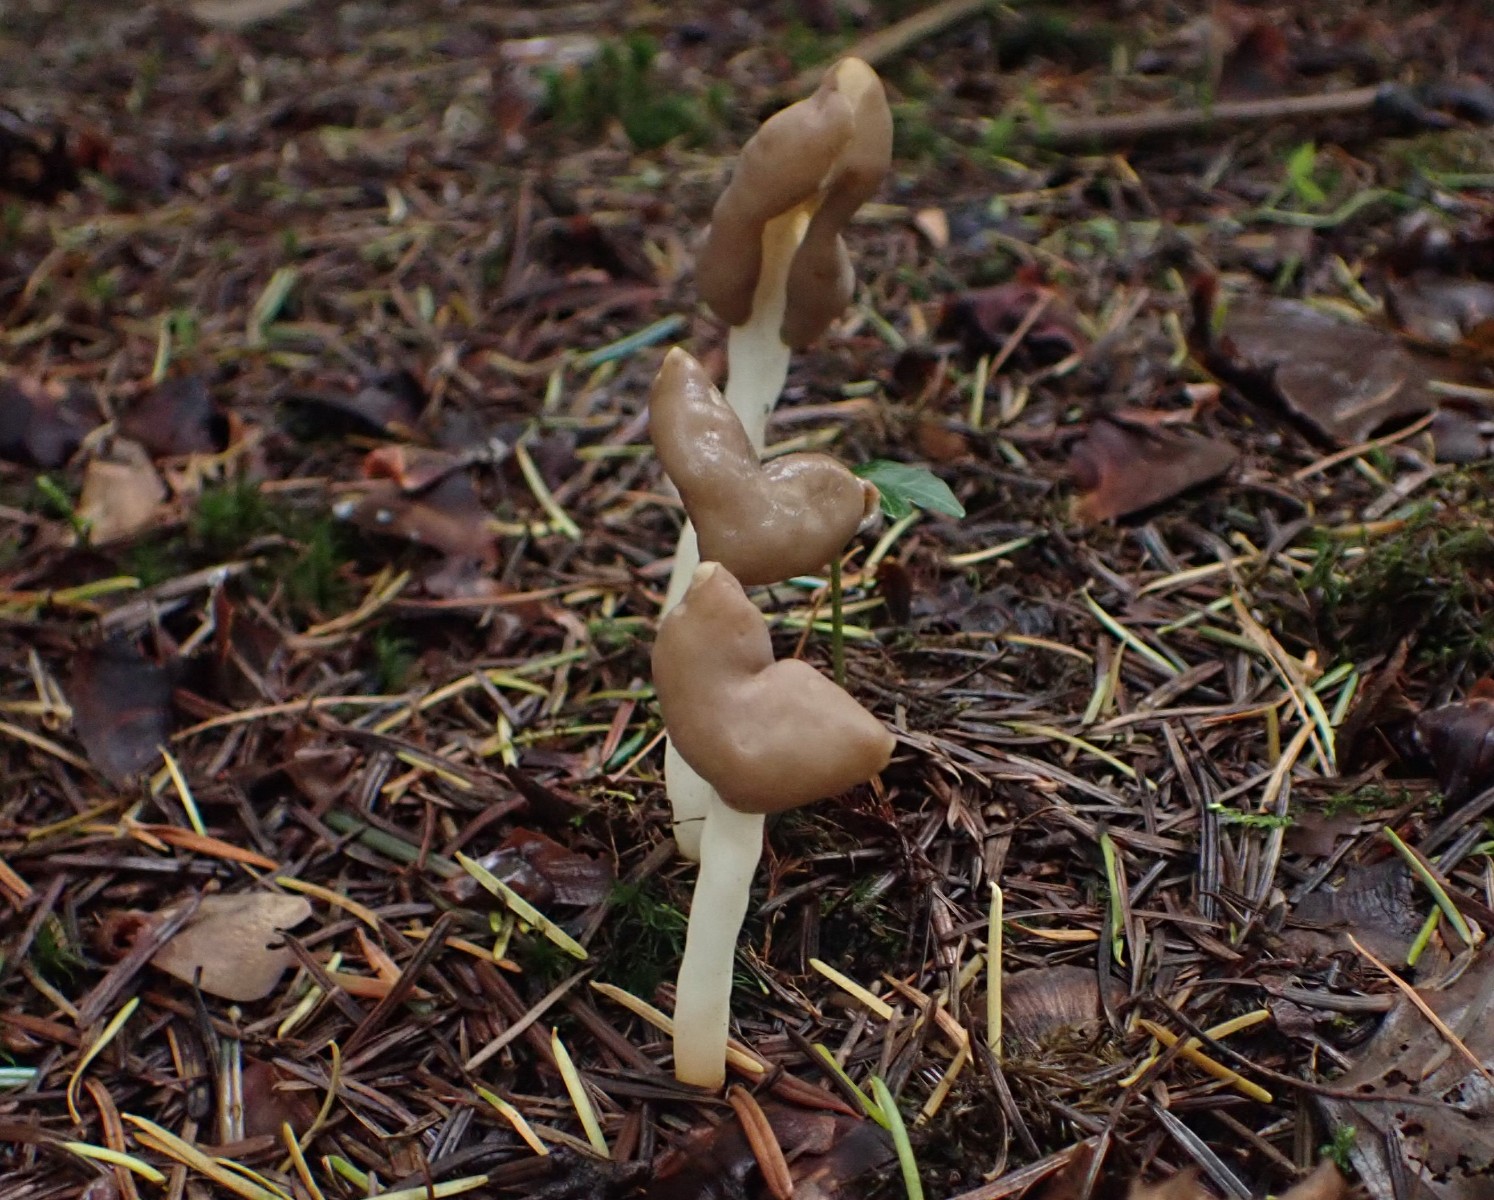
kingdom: Fungi
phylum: Ascomycota
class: Pezizomycetes
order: Pezizales
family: Helvellaceae
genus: Helvella
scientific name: Helvella elastica
